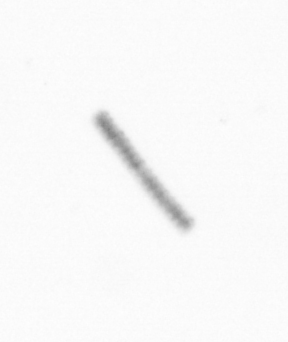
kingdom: Chromista
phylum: Ochrophyta
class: Bacillariophyceae
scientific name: Bacillariophyceae
